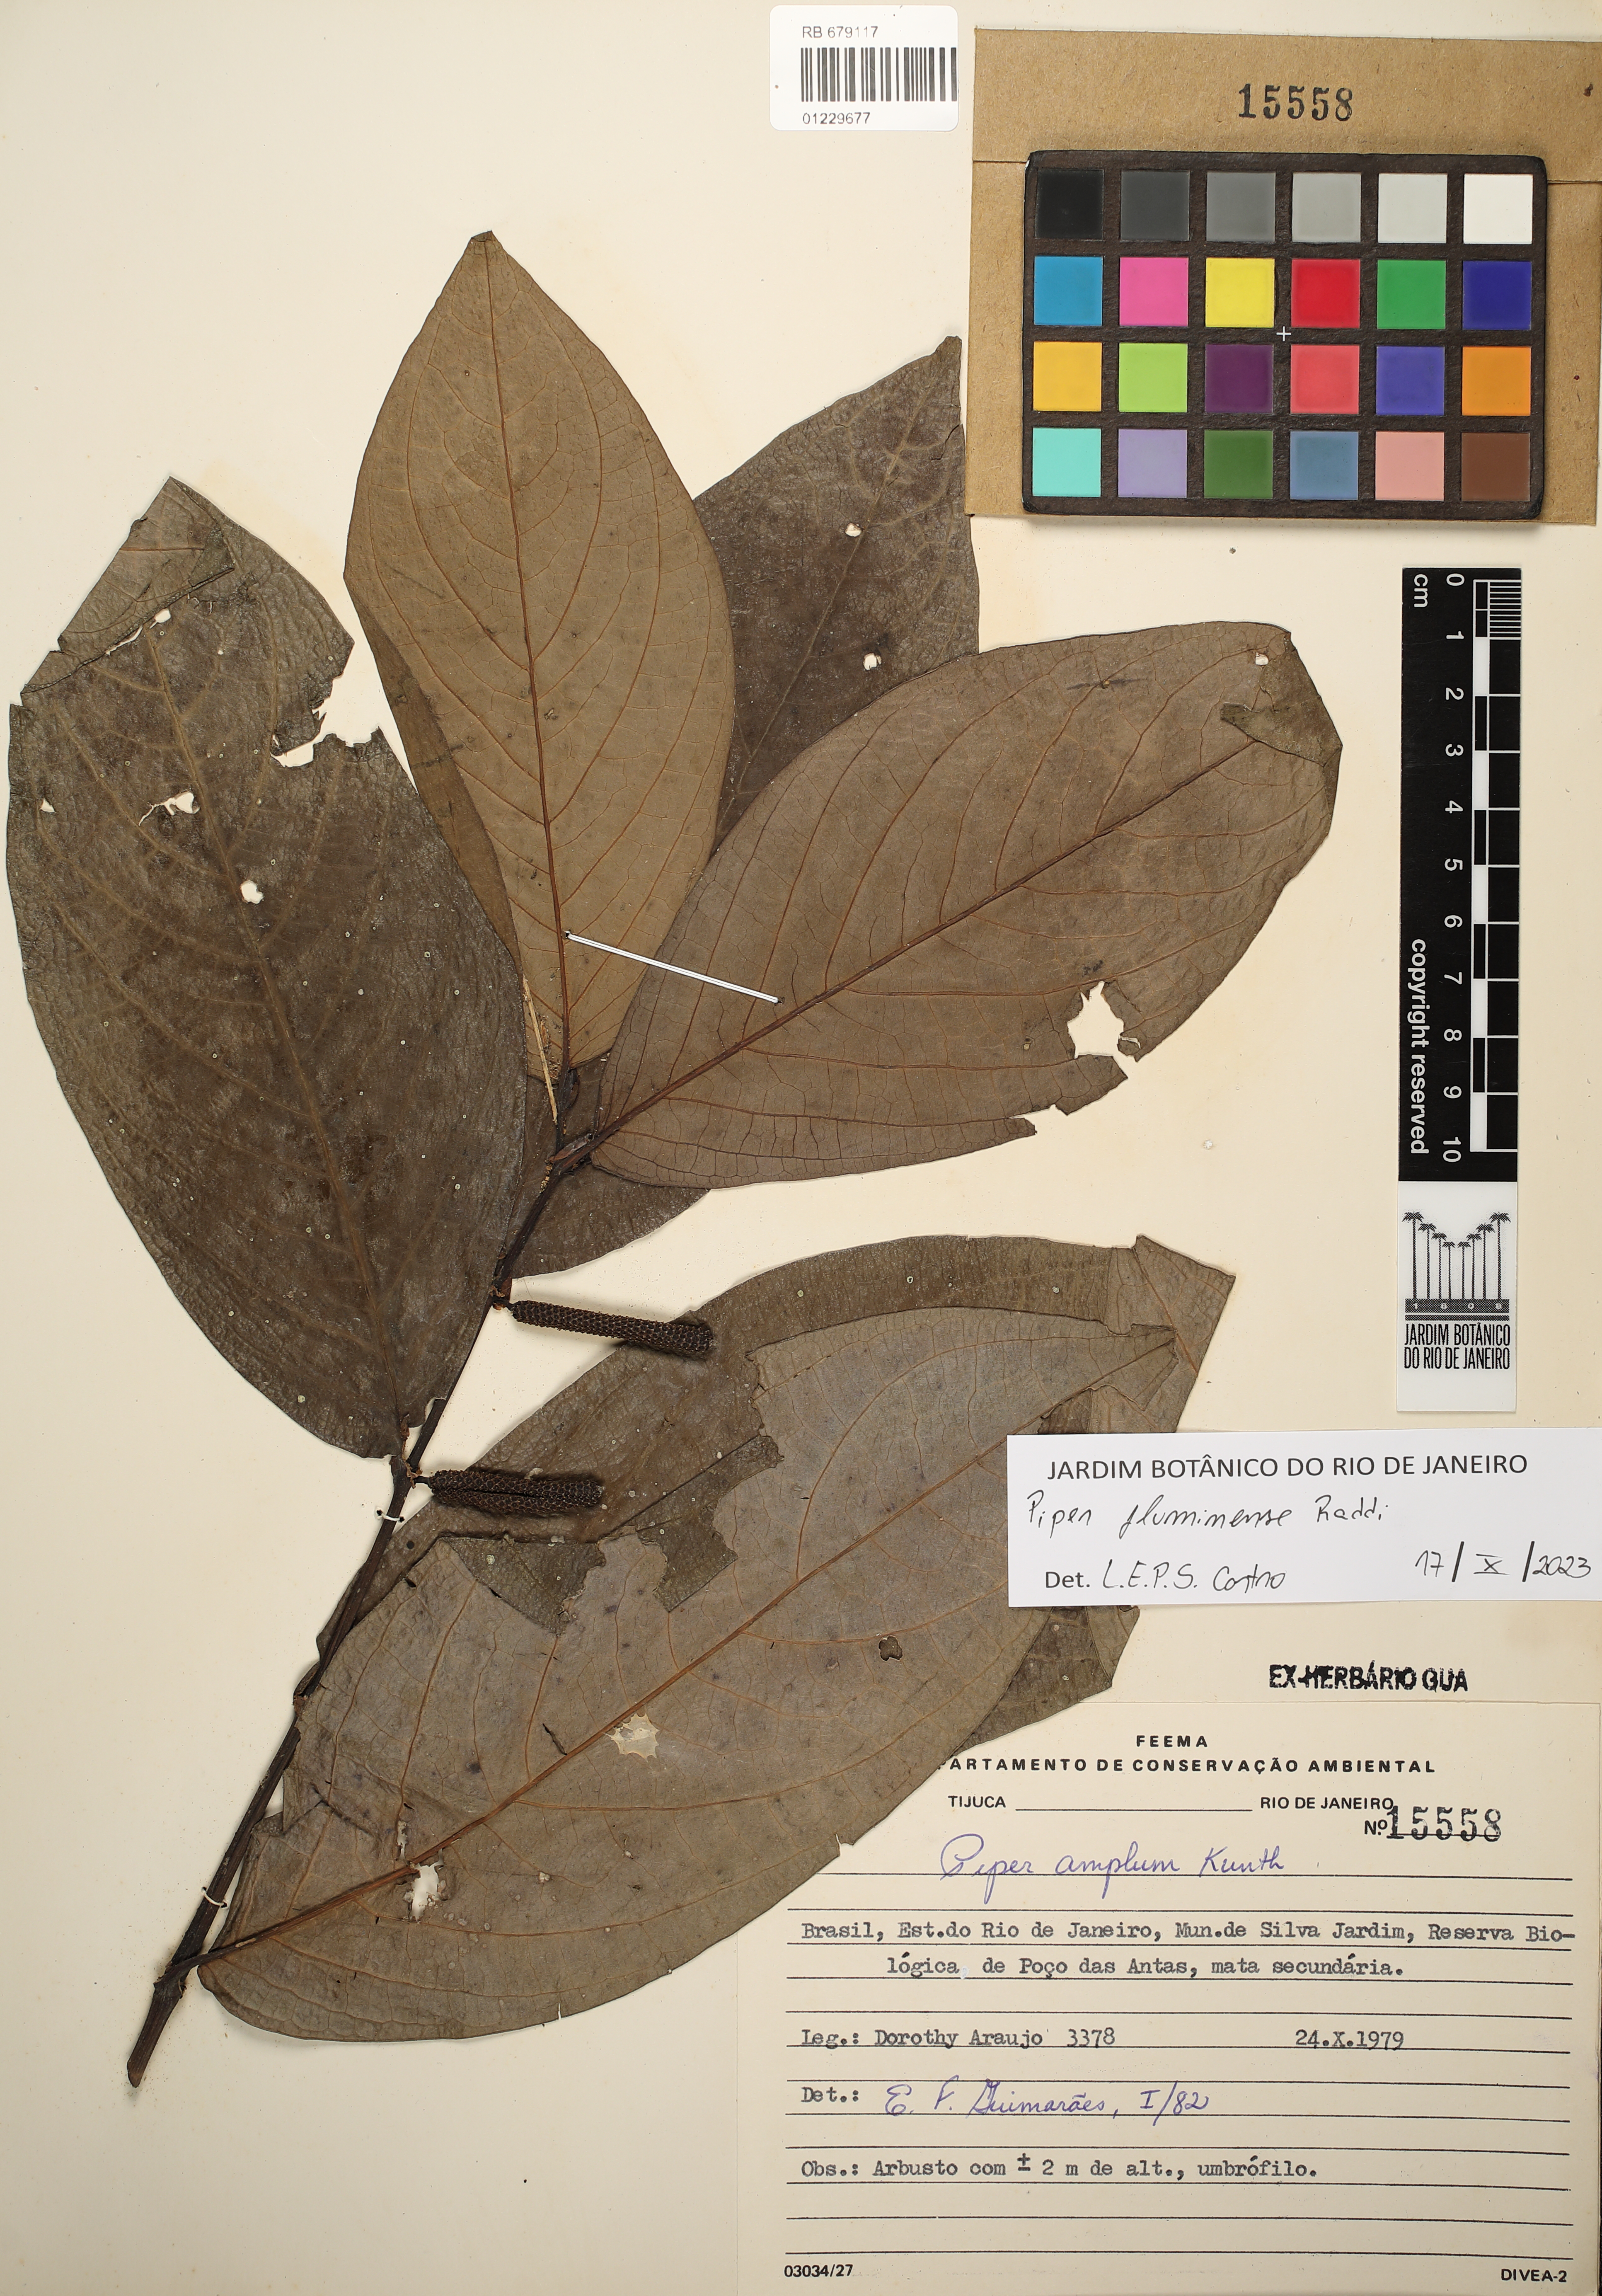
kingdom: Plantae
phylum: Tracheophyta
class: Magnoliopsida
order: Piperales
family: Piperaceae
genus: Piper
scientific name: Piper fluminense
